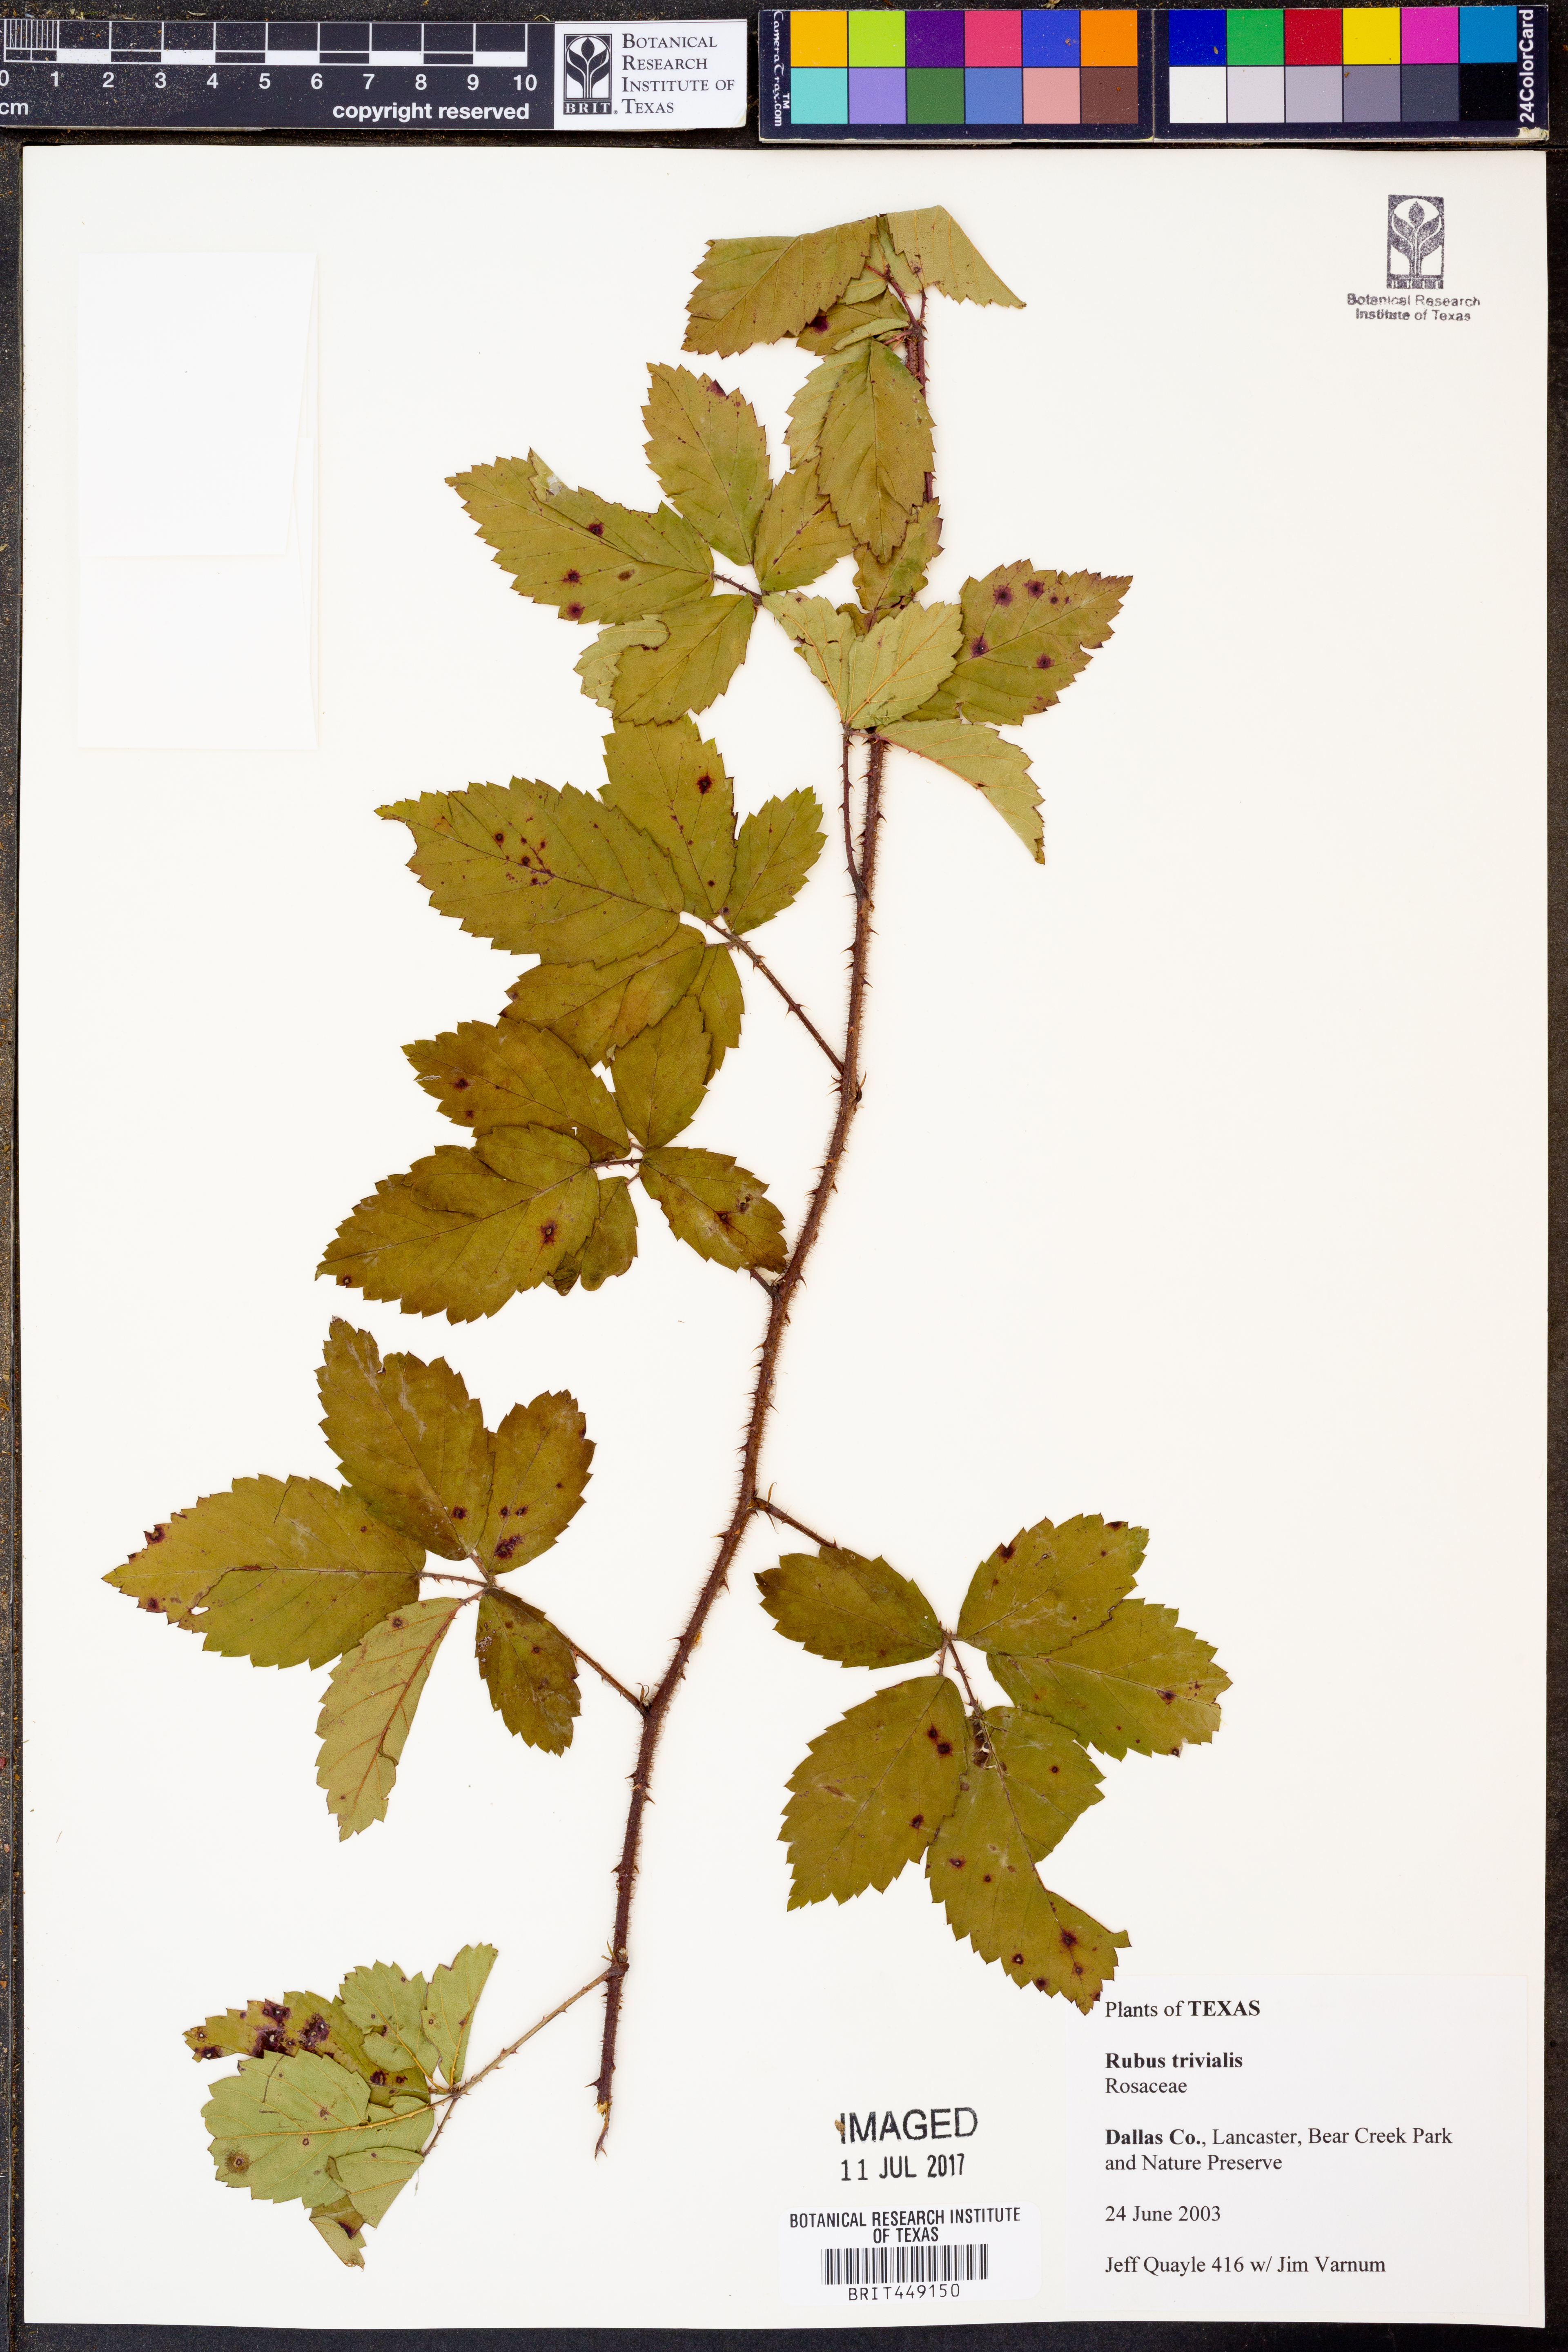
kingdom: Plantae
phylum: Tracheophyta
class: Magnoliopsida
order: Rosales
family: Rosaceae
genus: Rubus
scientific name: Rubus trivialis
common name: Southern dewberry
